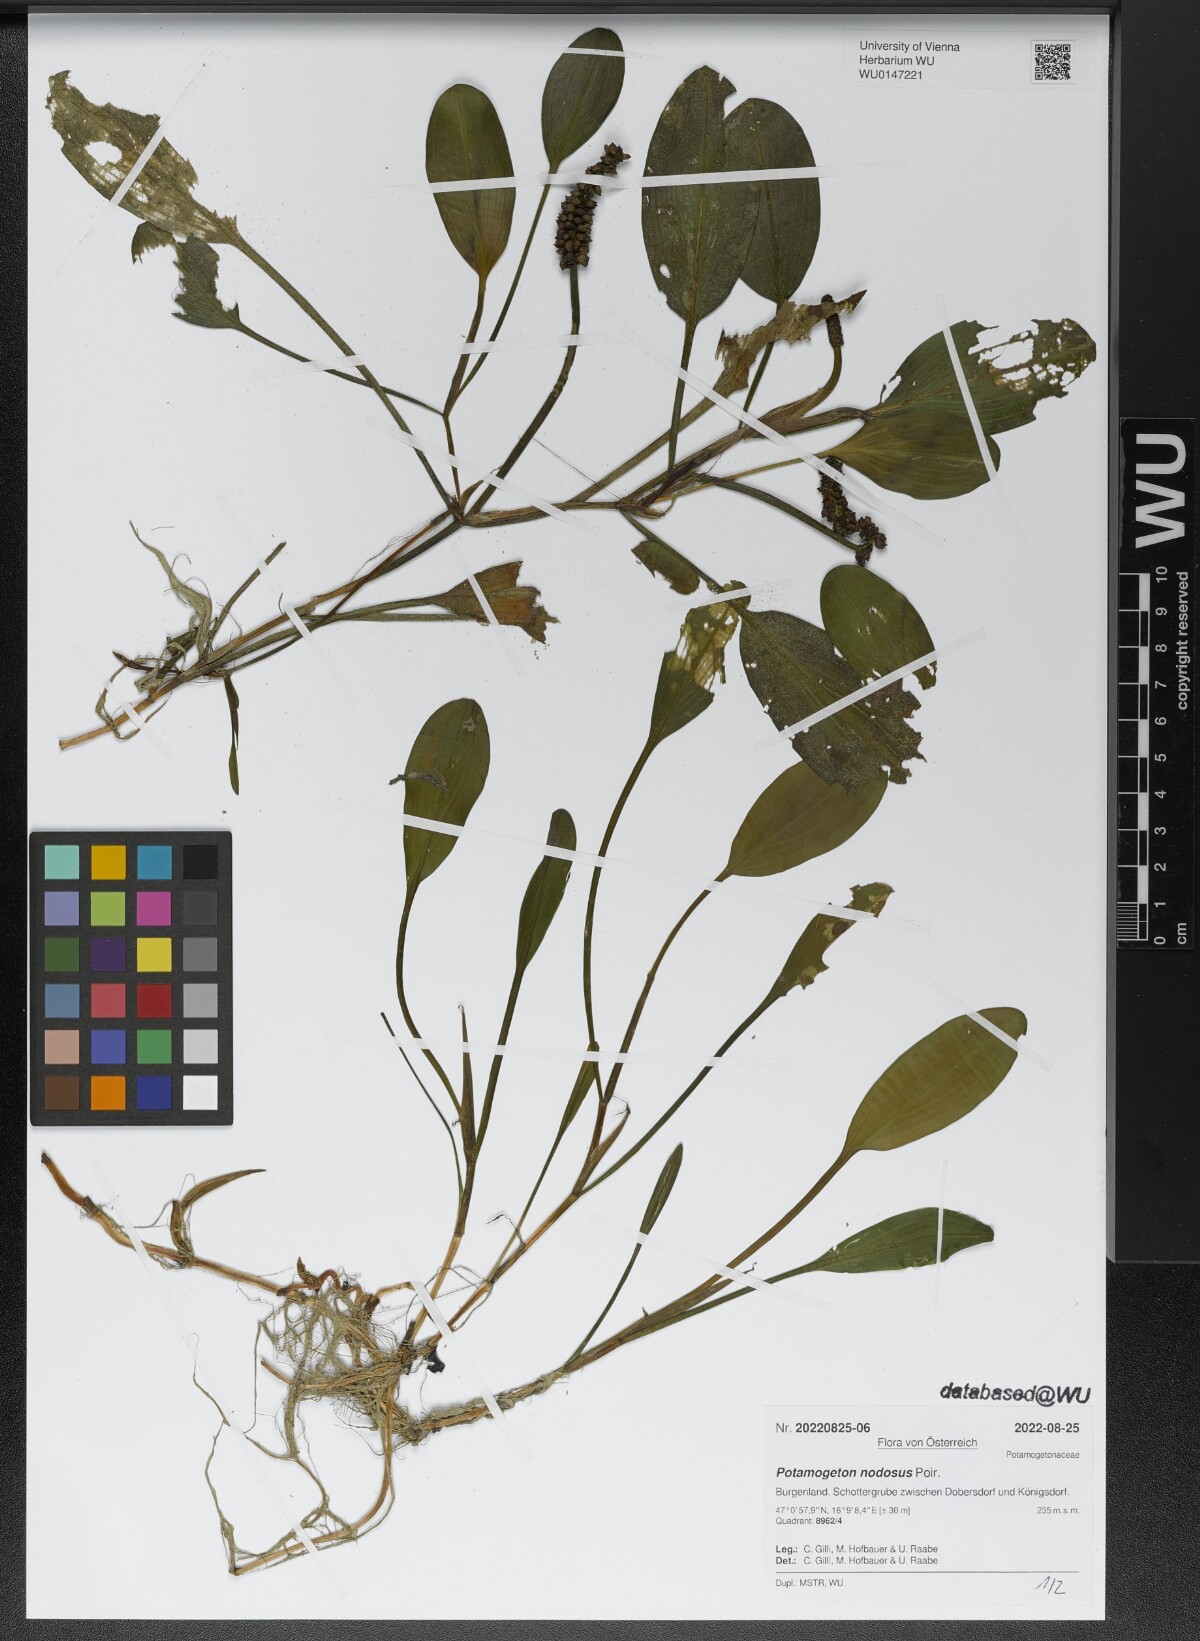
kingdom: Plantae
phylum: Tracheophyta
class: Liliopsida
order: Alismatales
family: Potamogetonaceae
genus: Potamogeton
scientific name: Potamogeton nodosus
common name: Loddon pondweed
